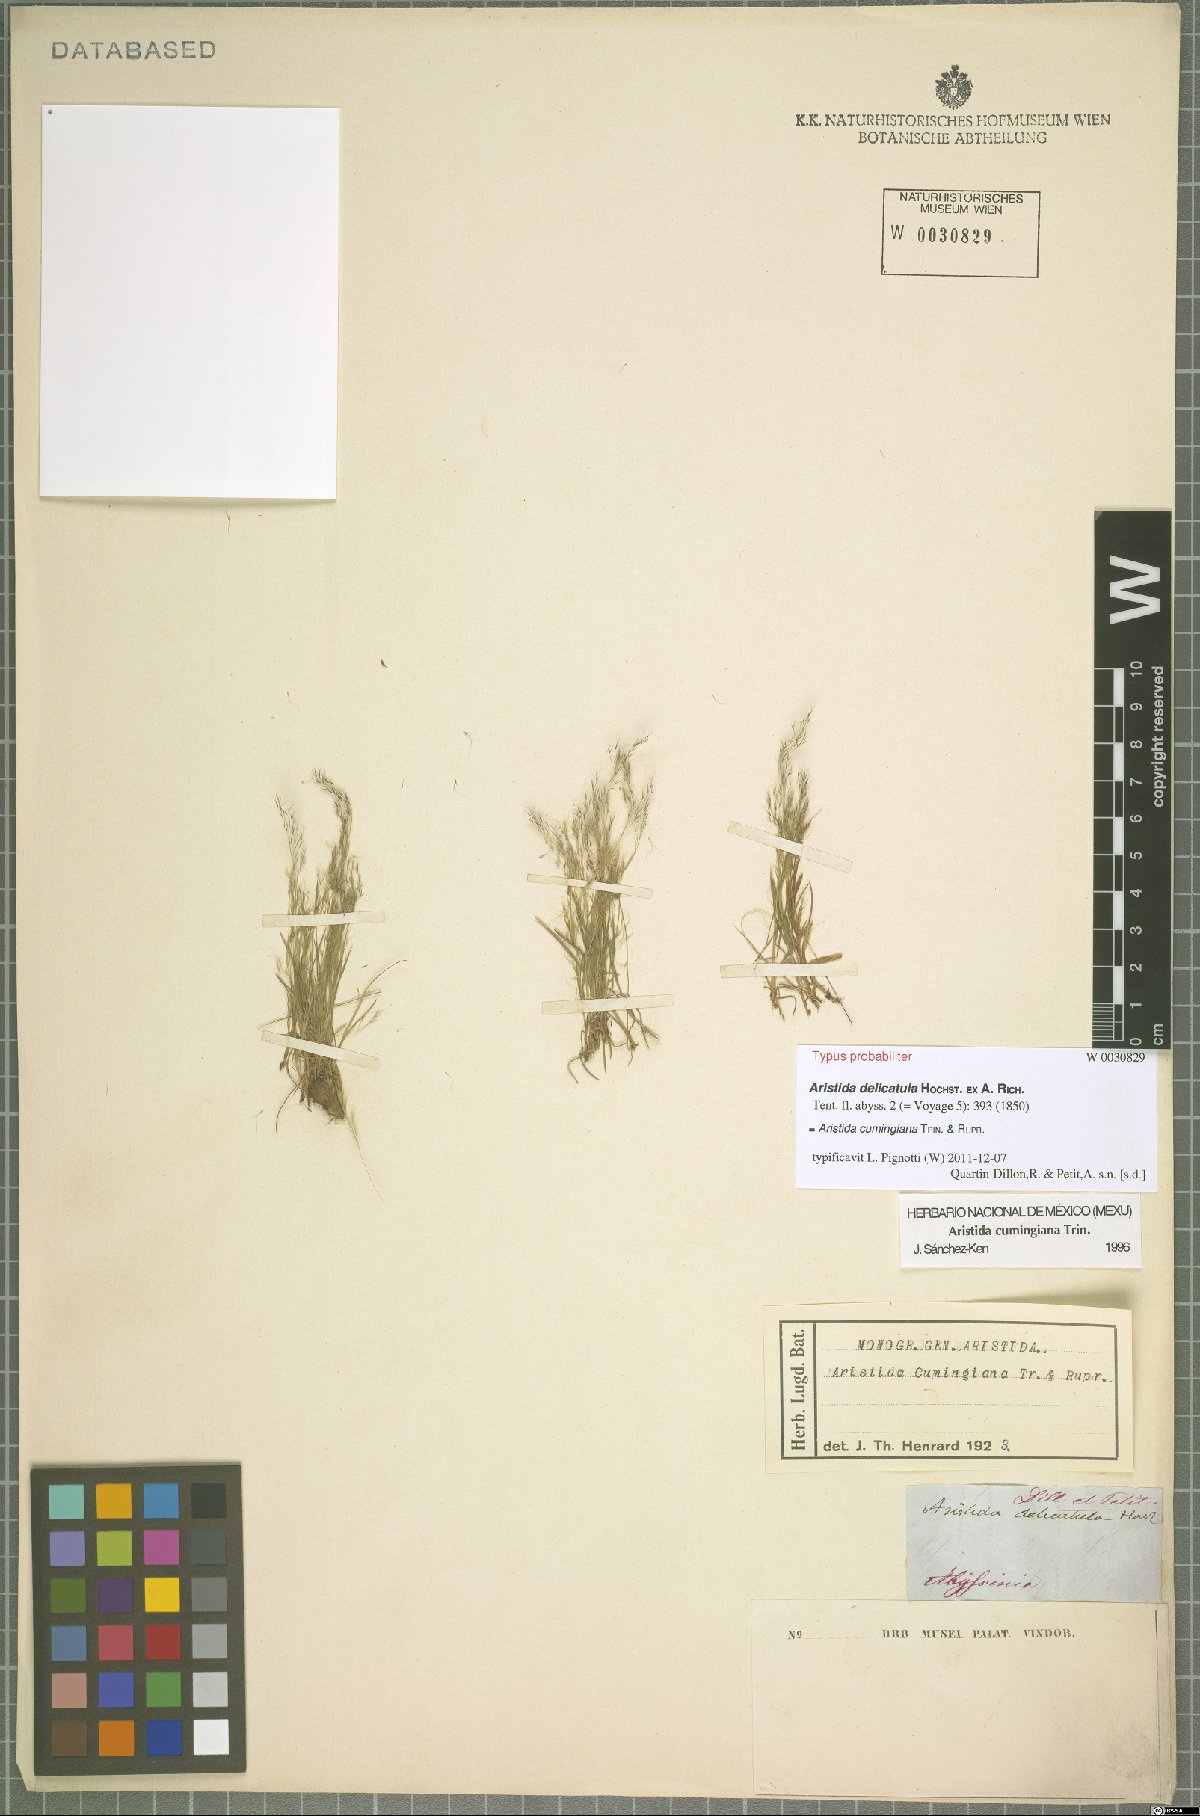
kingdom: Plantae
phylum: Tracheophyta
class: Liliopsida
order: Poales
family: Poaceae
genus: Aristida
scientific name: Aristida cumingiana
